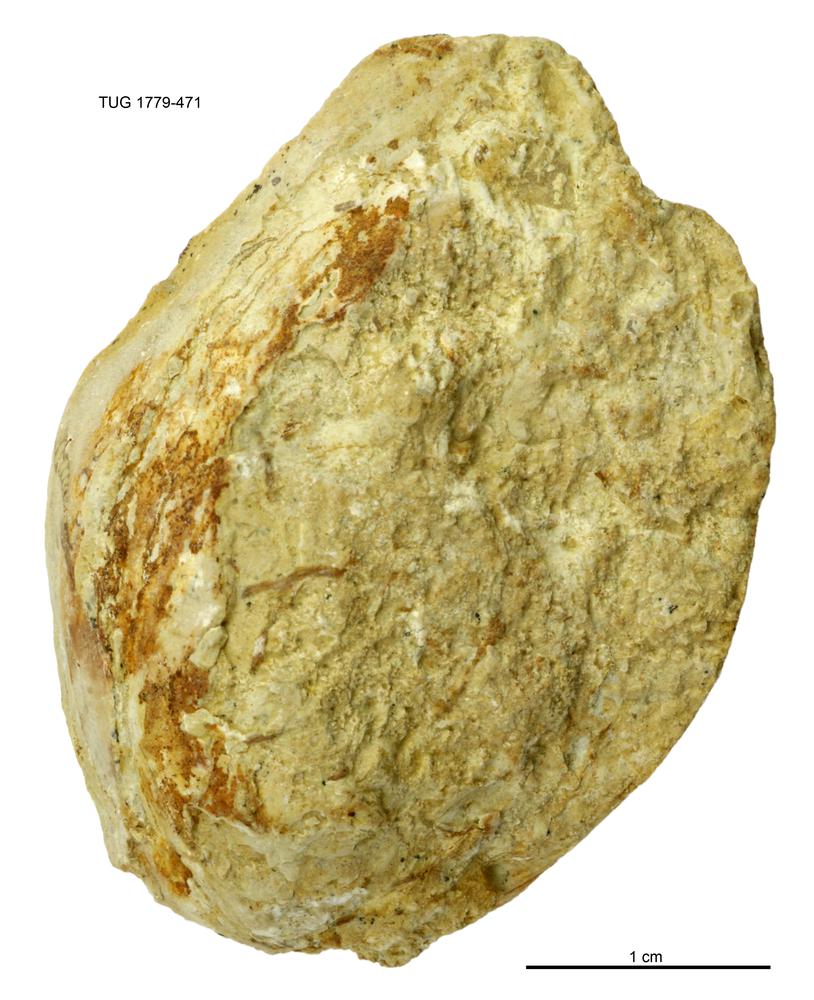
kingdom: Animalia
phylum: Mollusca
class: Bivalvia
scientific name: Bivalvia
